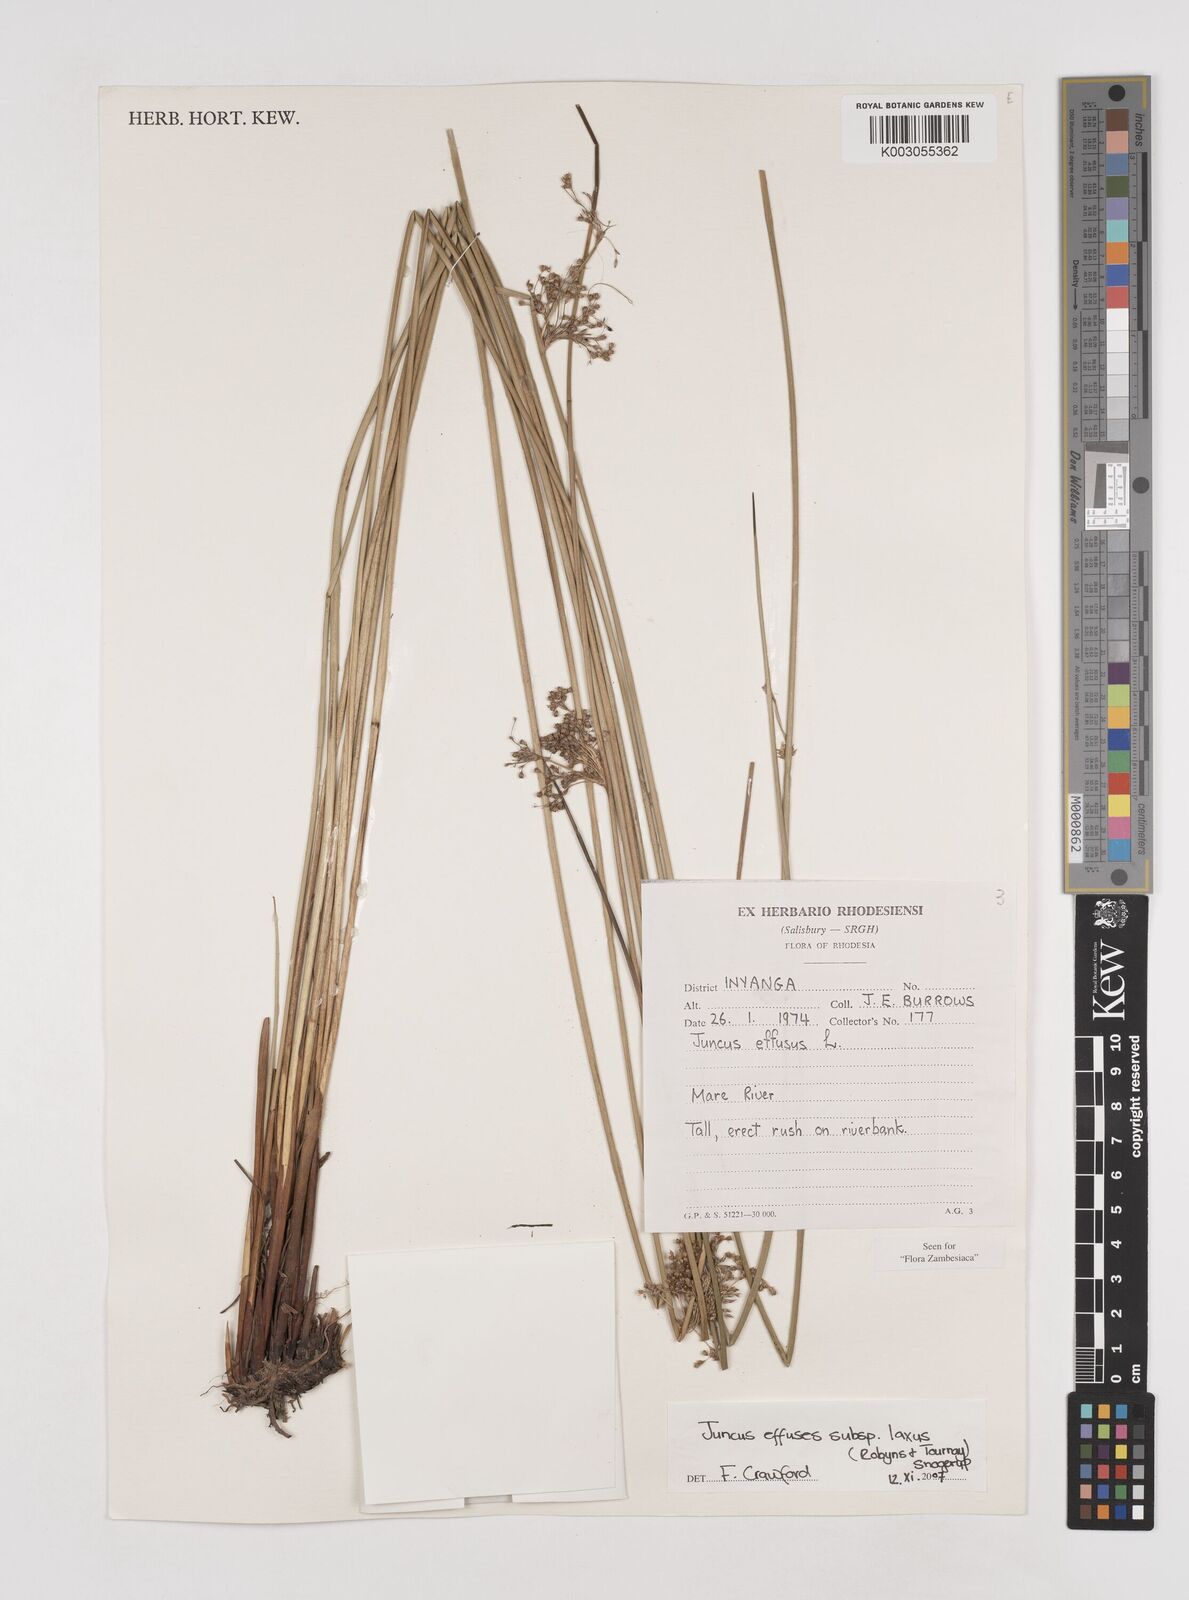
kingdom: Plantae
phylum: Tracheophyta
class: Liliopsida
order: Poales
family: Juncaceae
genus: Juncus
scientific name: Juncus effusus
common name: Soft rush
